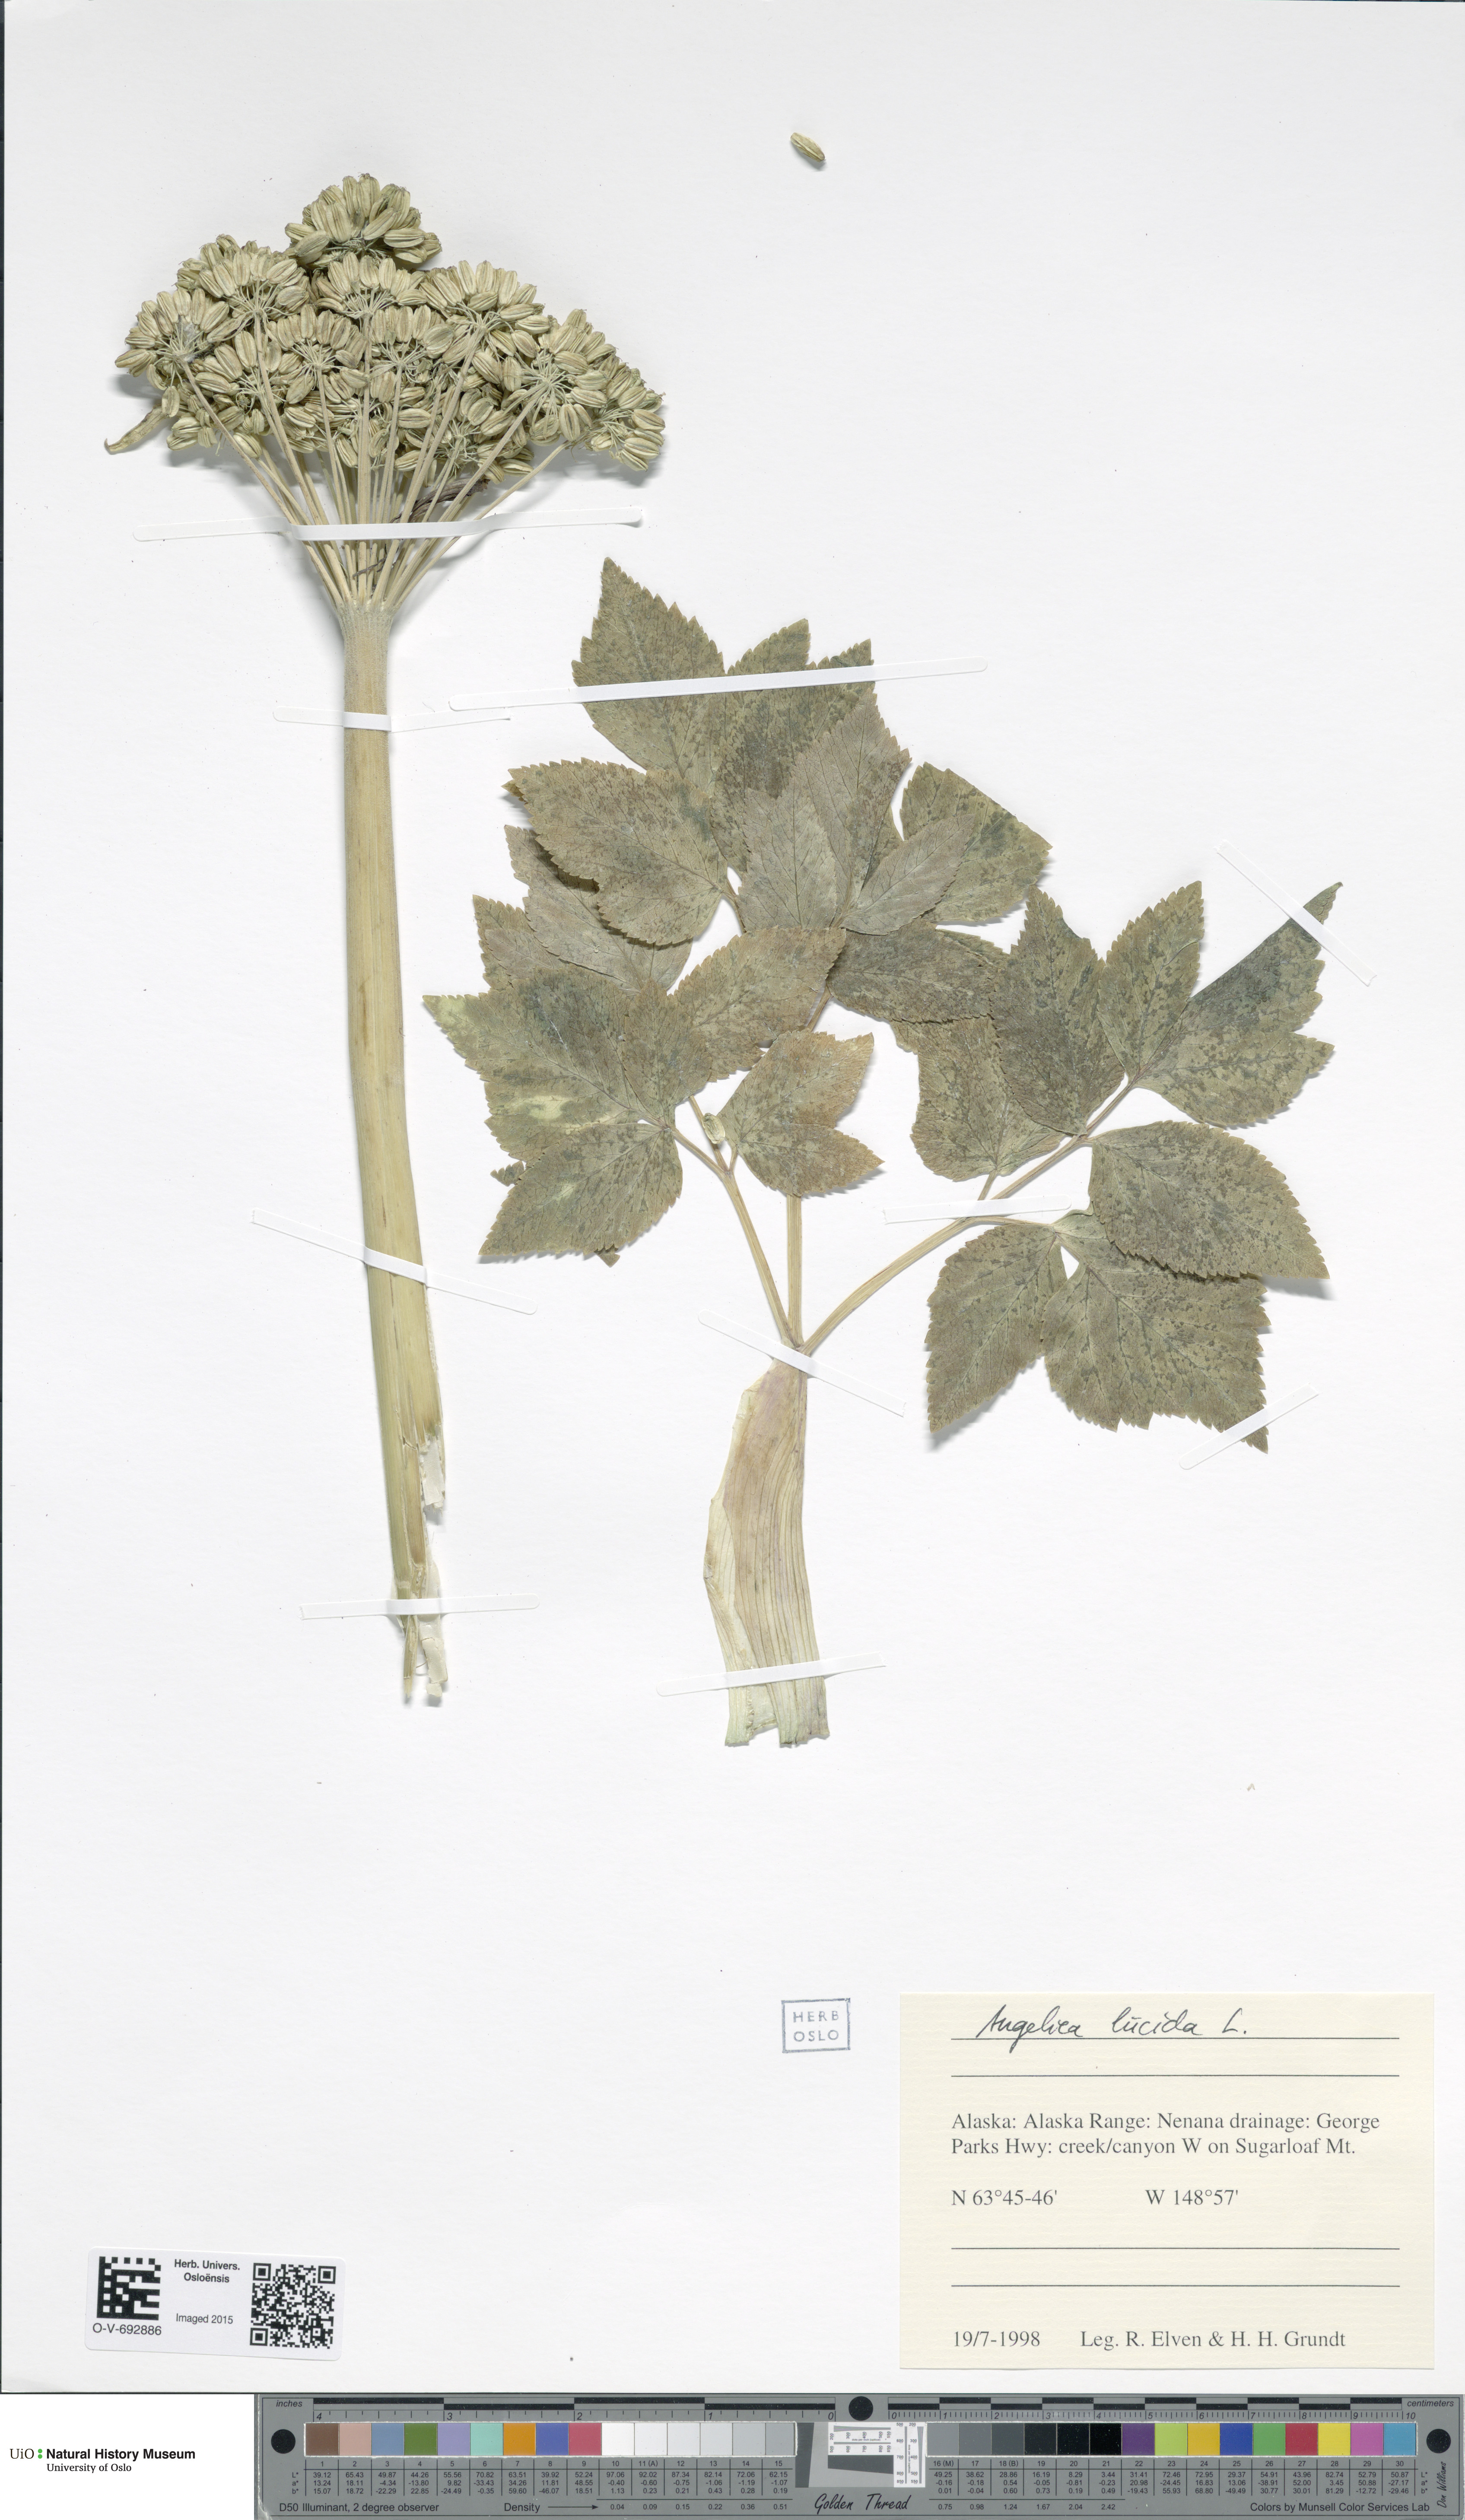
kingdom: Plantae
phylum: Tracheophyta
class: Magnoliopsida
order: Apiales
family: Apiaceae
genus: Angelica
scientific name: Angelica lucida
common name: Seabeach angelica
